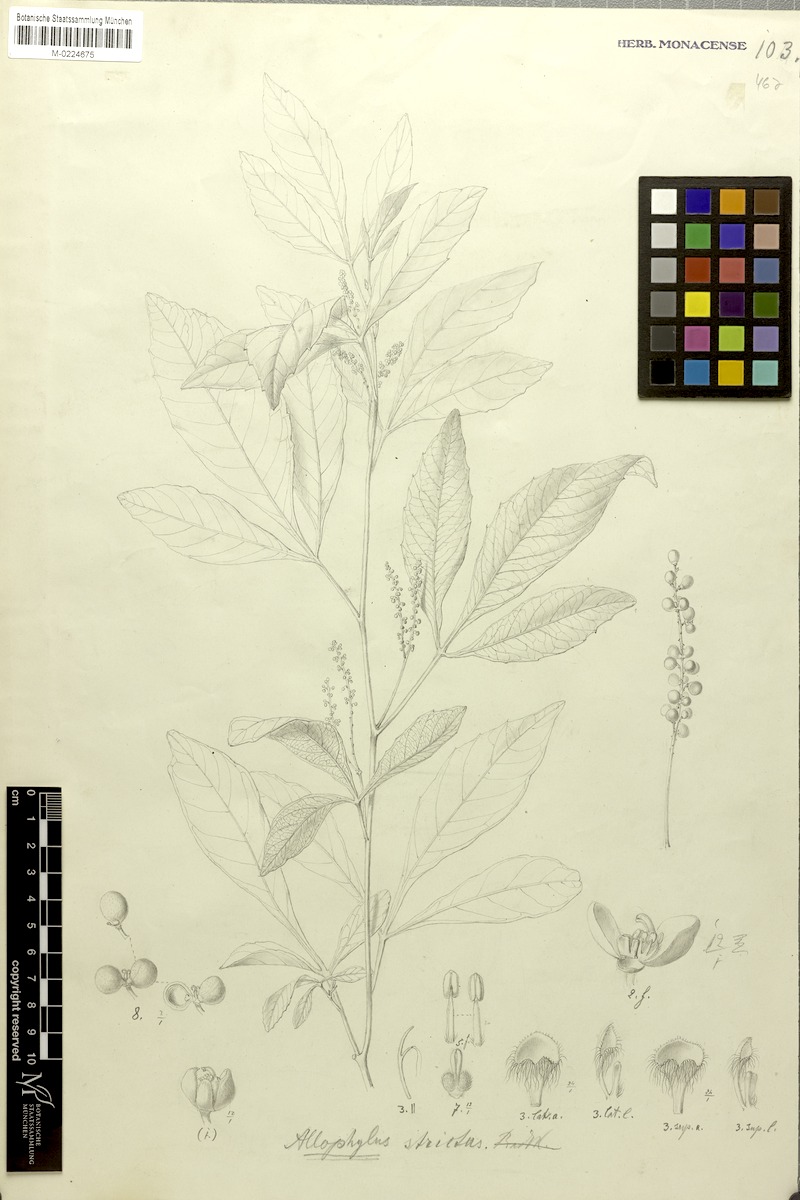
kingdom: Plantae
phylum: Tracheophyta
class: Magnoliopsida
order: Sapindales
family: Sapindaceae
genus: Allophylus
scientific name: Allophylus strictus
